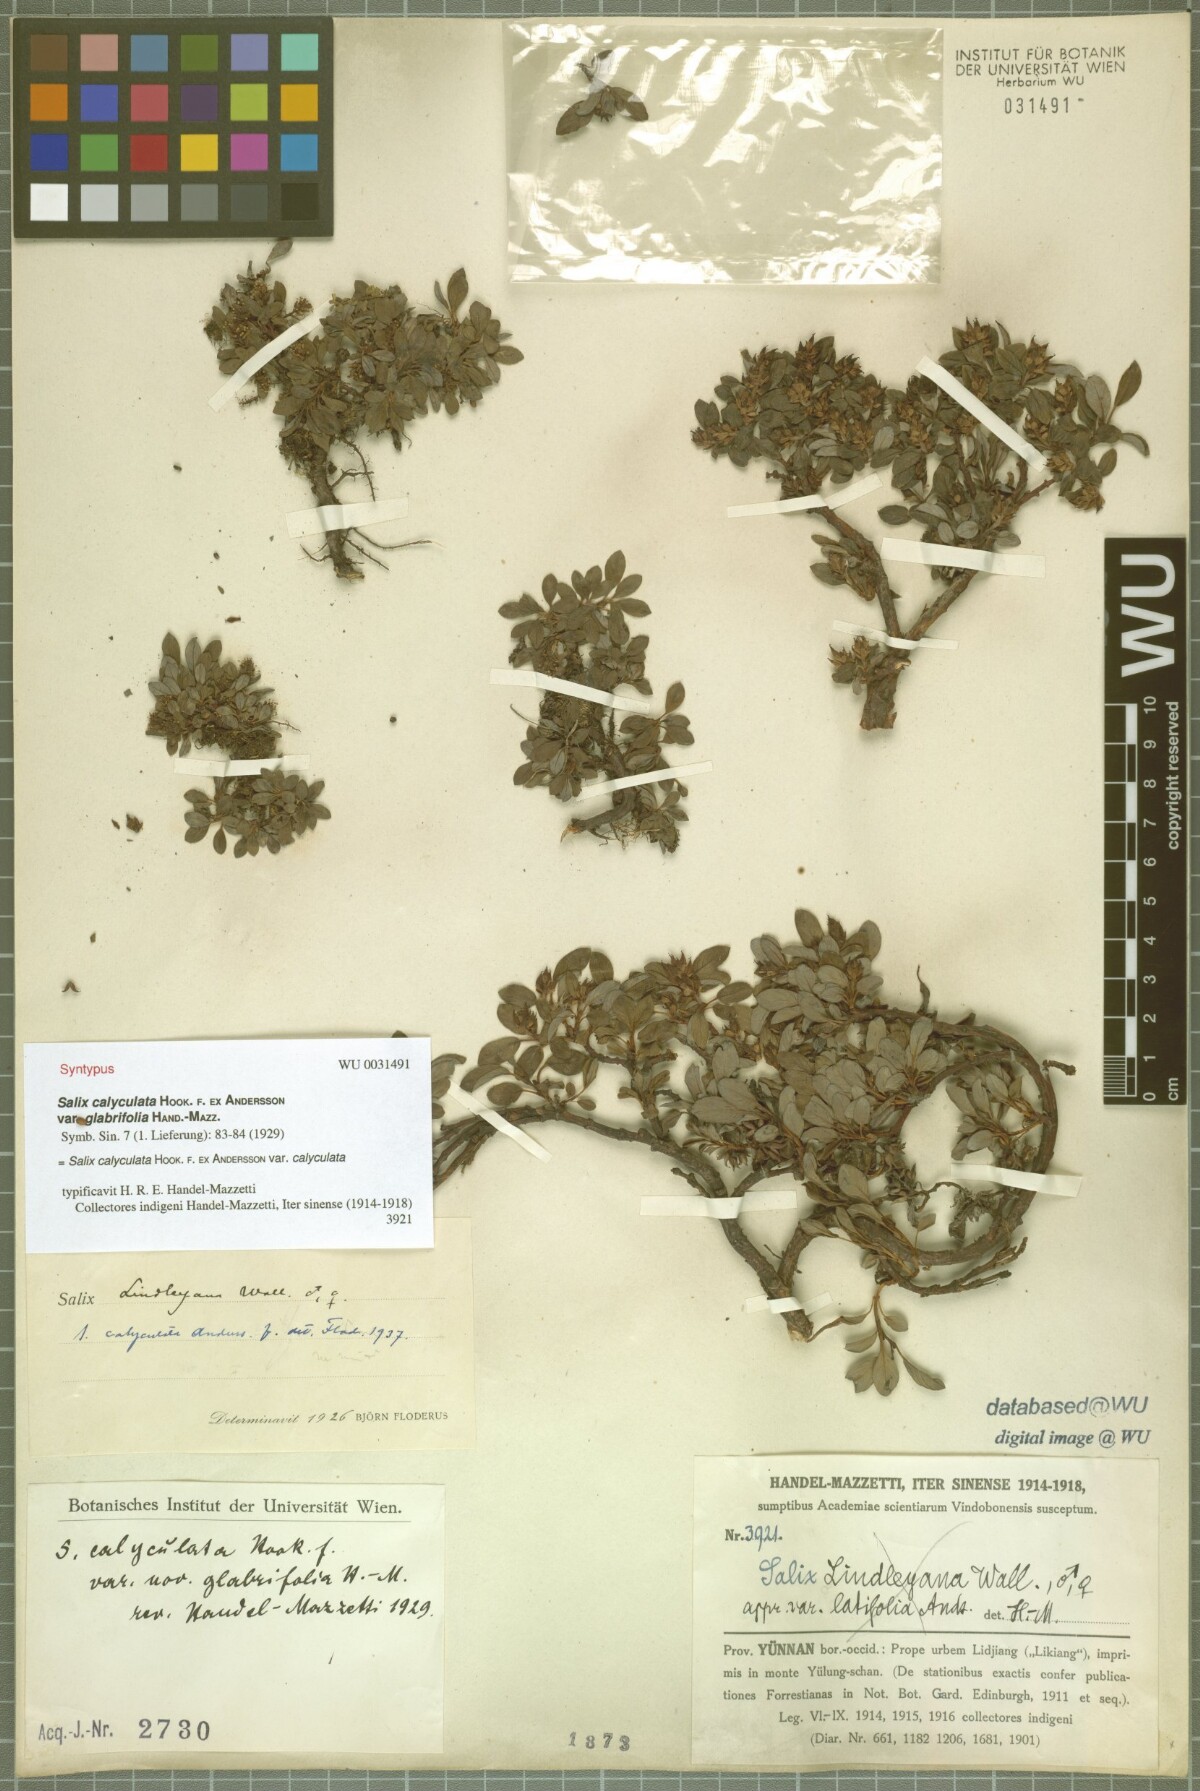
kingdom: Plantae
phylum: Tracheophyta
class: Magnoliopsida
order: Malpighiales
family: Salicaceae
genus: Salix
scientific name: Salix lindleyana
